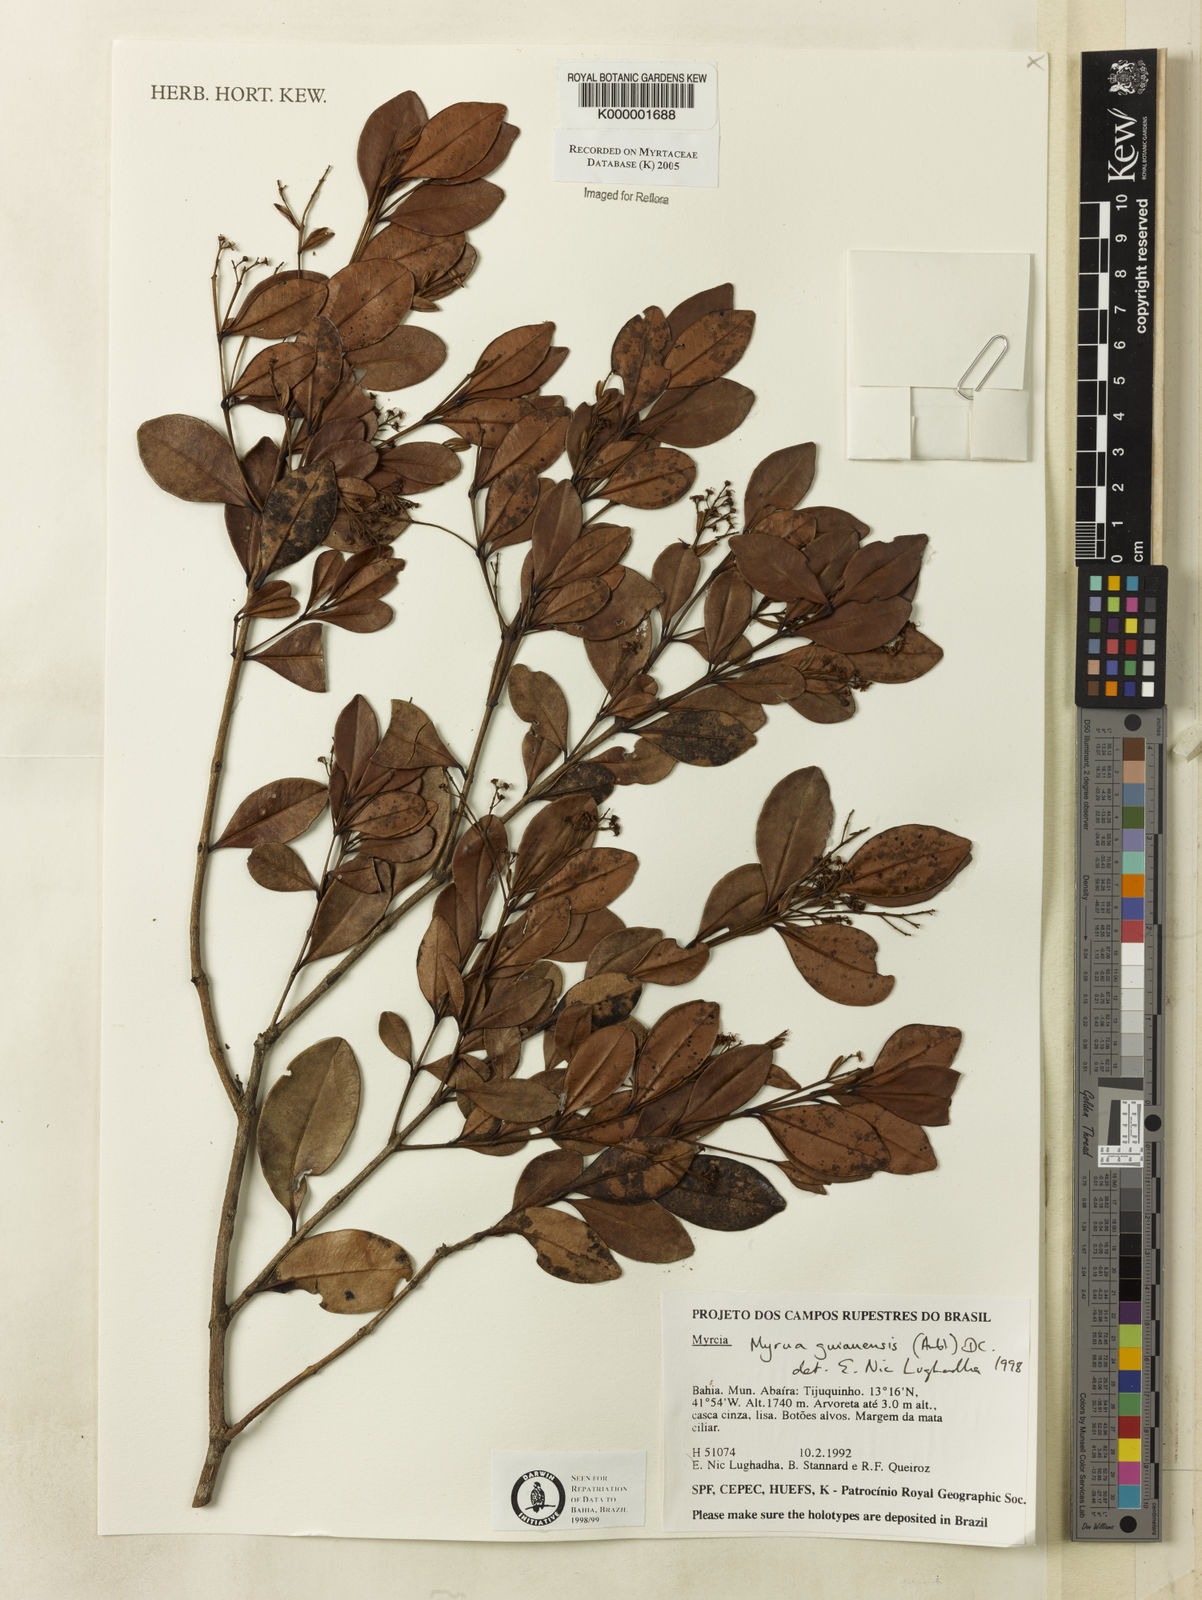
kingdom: Plantae
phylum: Tracheophyta
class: Magnoliopsida
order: Myrtales
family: Myrtaceae
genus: Myrcia
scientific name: Myrcia guianensis
